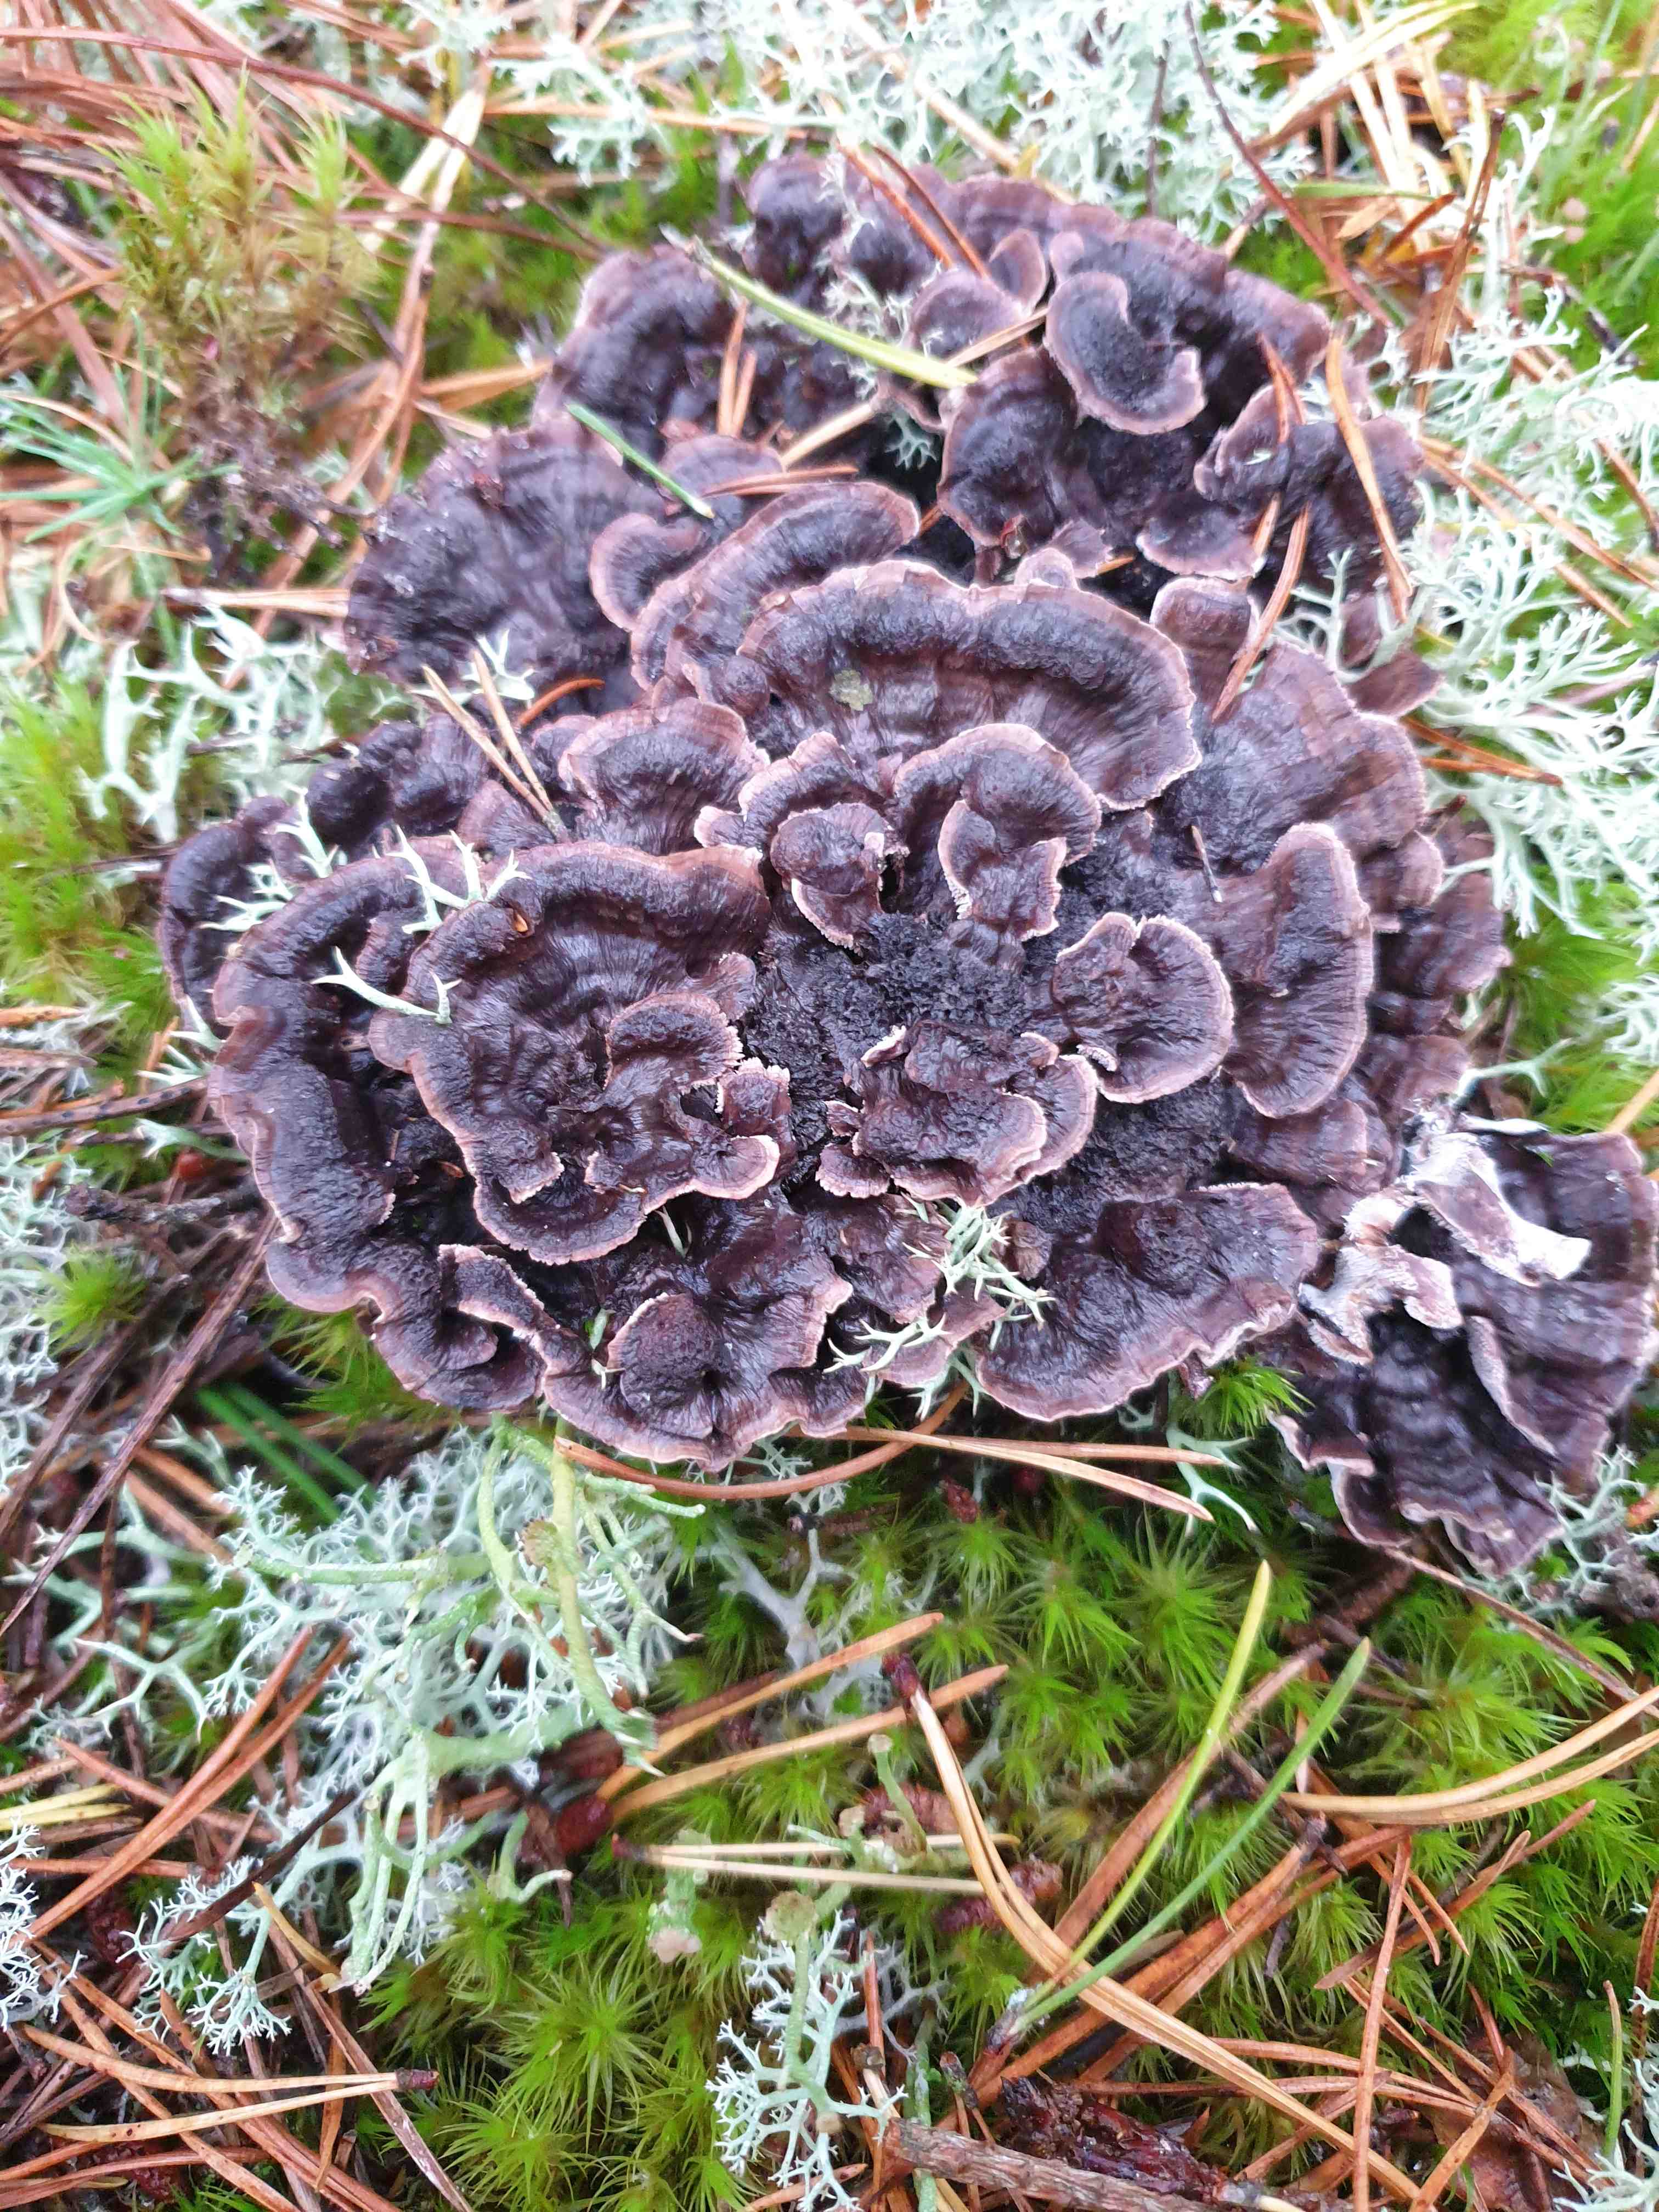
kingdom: Fungi
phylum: Basidiomycota
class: Agaricomycetes
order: Thelephorales
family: Thelephoraceae
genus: Phellodon
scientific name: Phellodon tomentosus
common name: vellugtende duftpigsvamp
